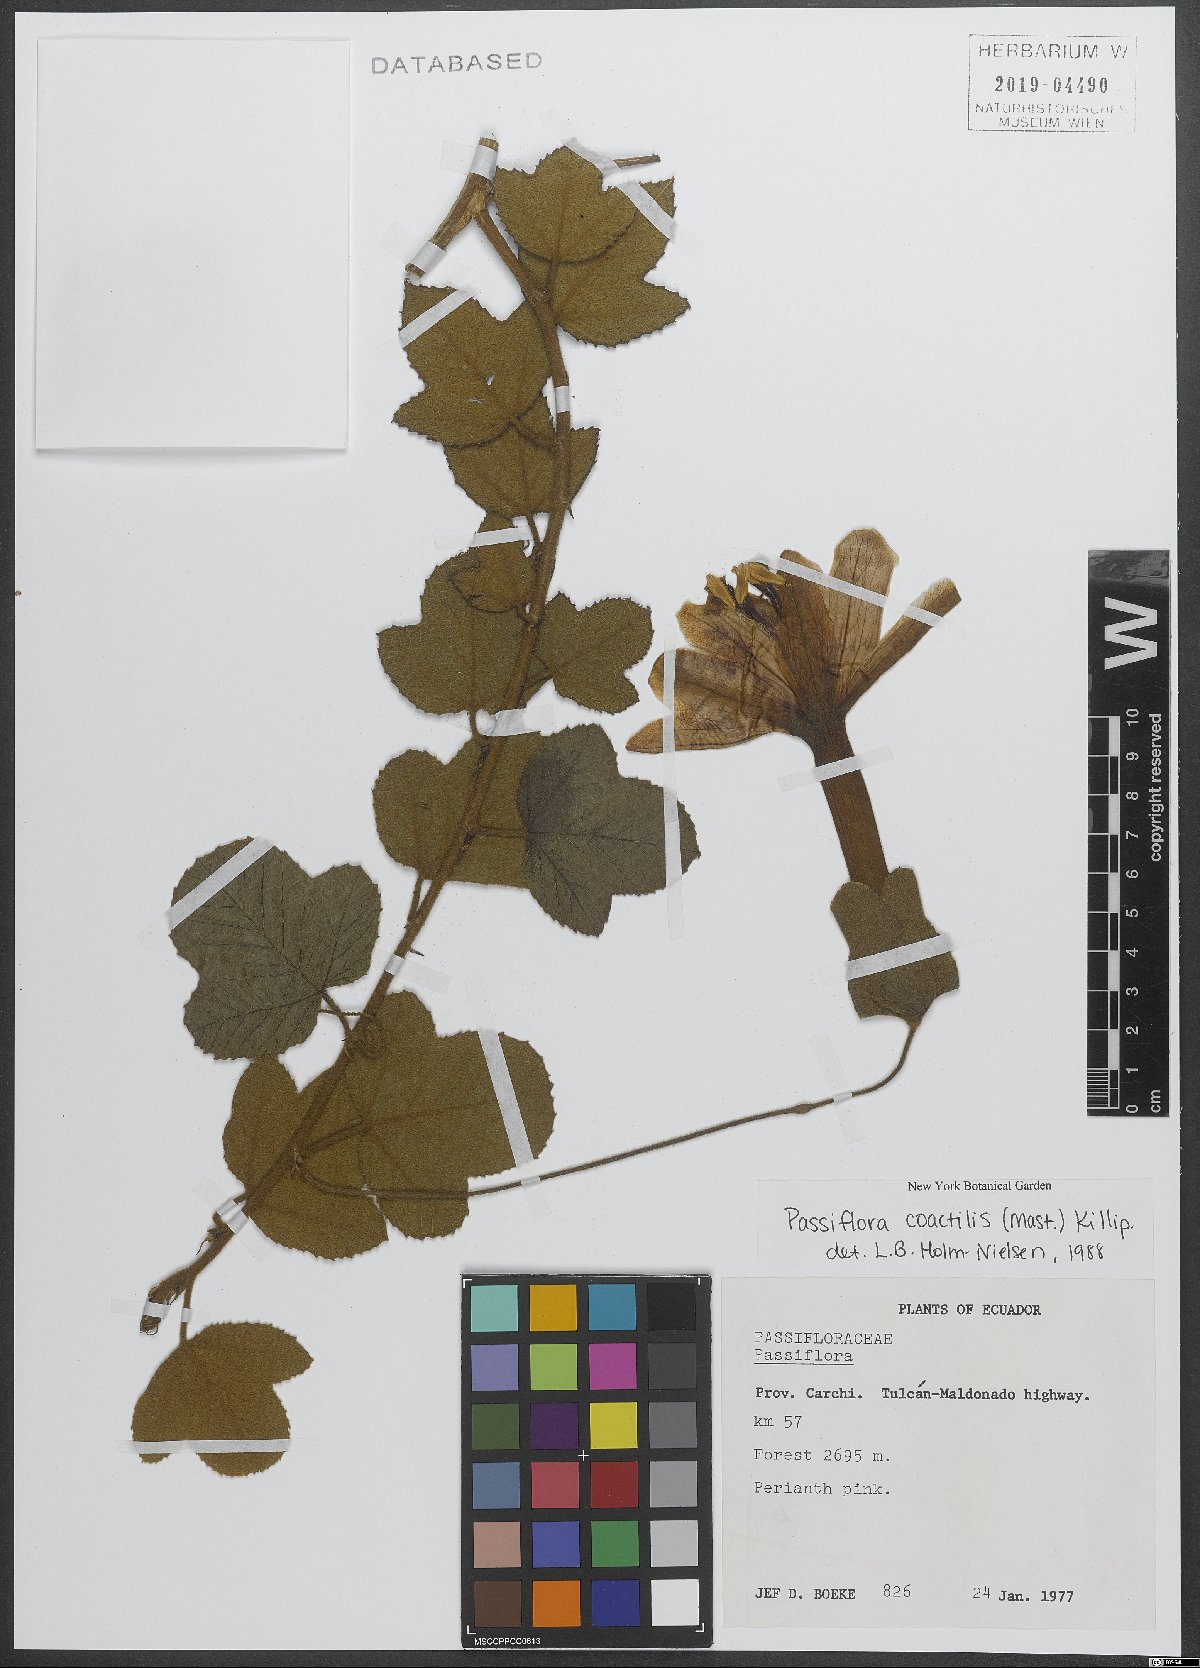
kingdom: Plantae
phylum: Tracheophyta
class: Magnoliopsida
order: Malpighiales
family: Passifloraceae
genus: Passiflora
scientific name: Passiflora coactilis
